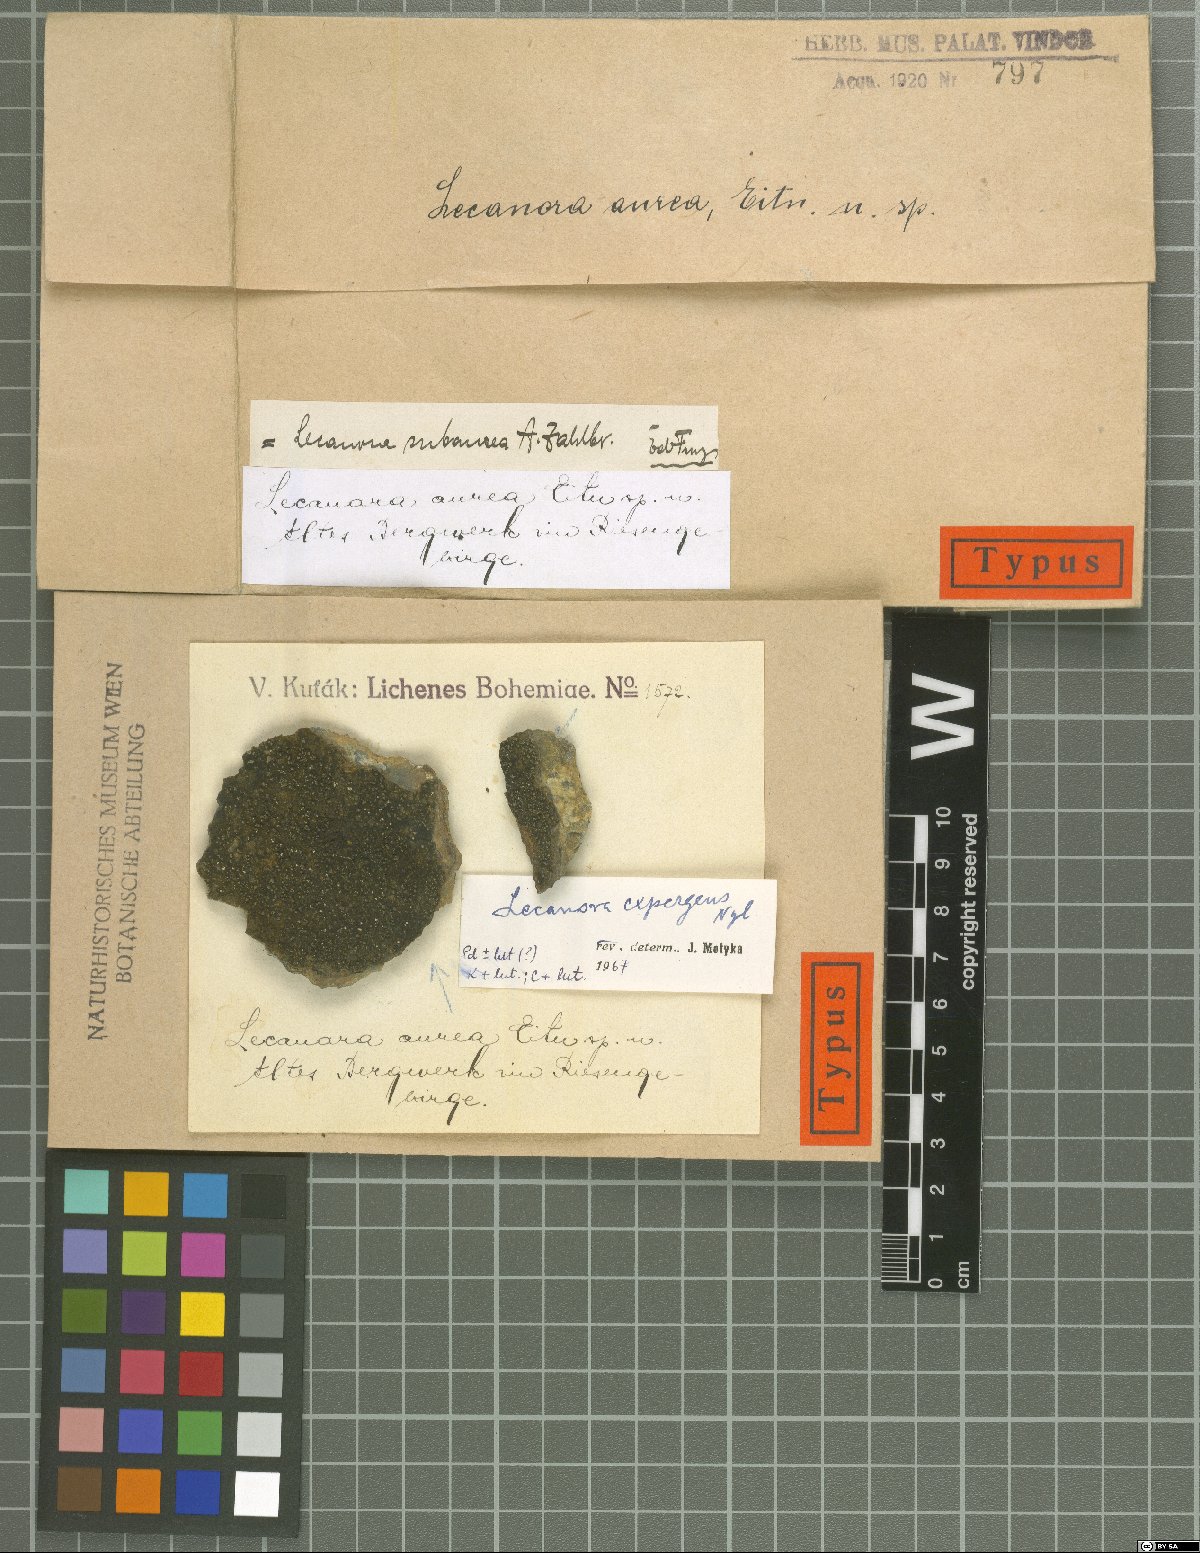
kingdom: Fungi
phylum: Ascomycota
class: Lecanoromycetes
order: Lecanorales
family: Lecanoraceae
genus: Lecanora
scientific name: Lecanora subaurea
